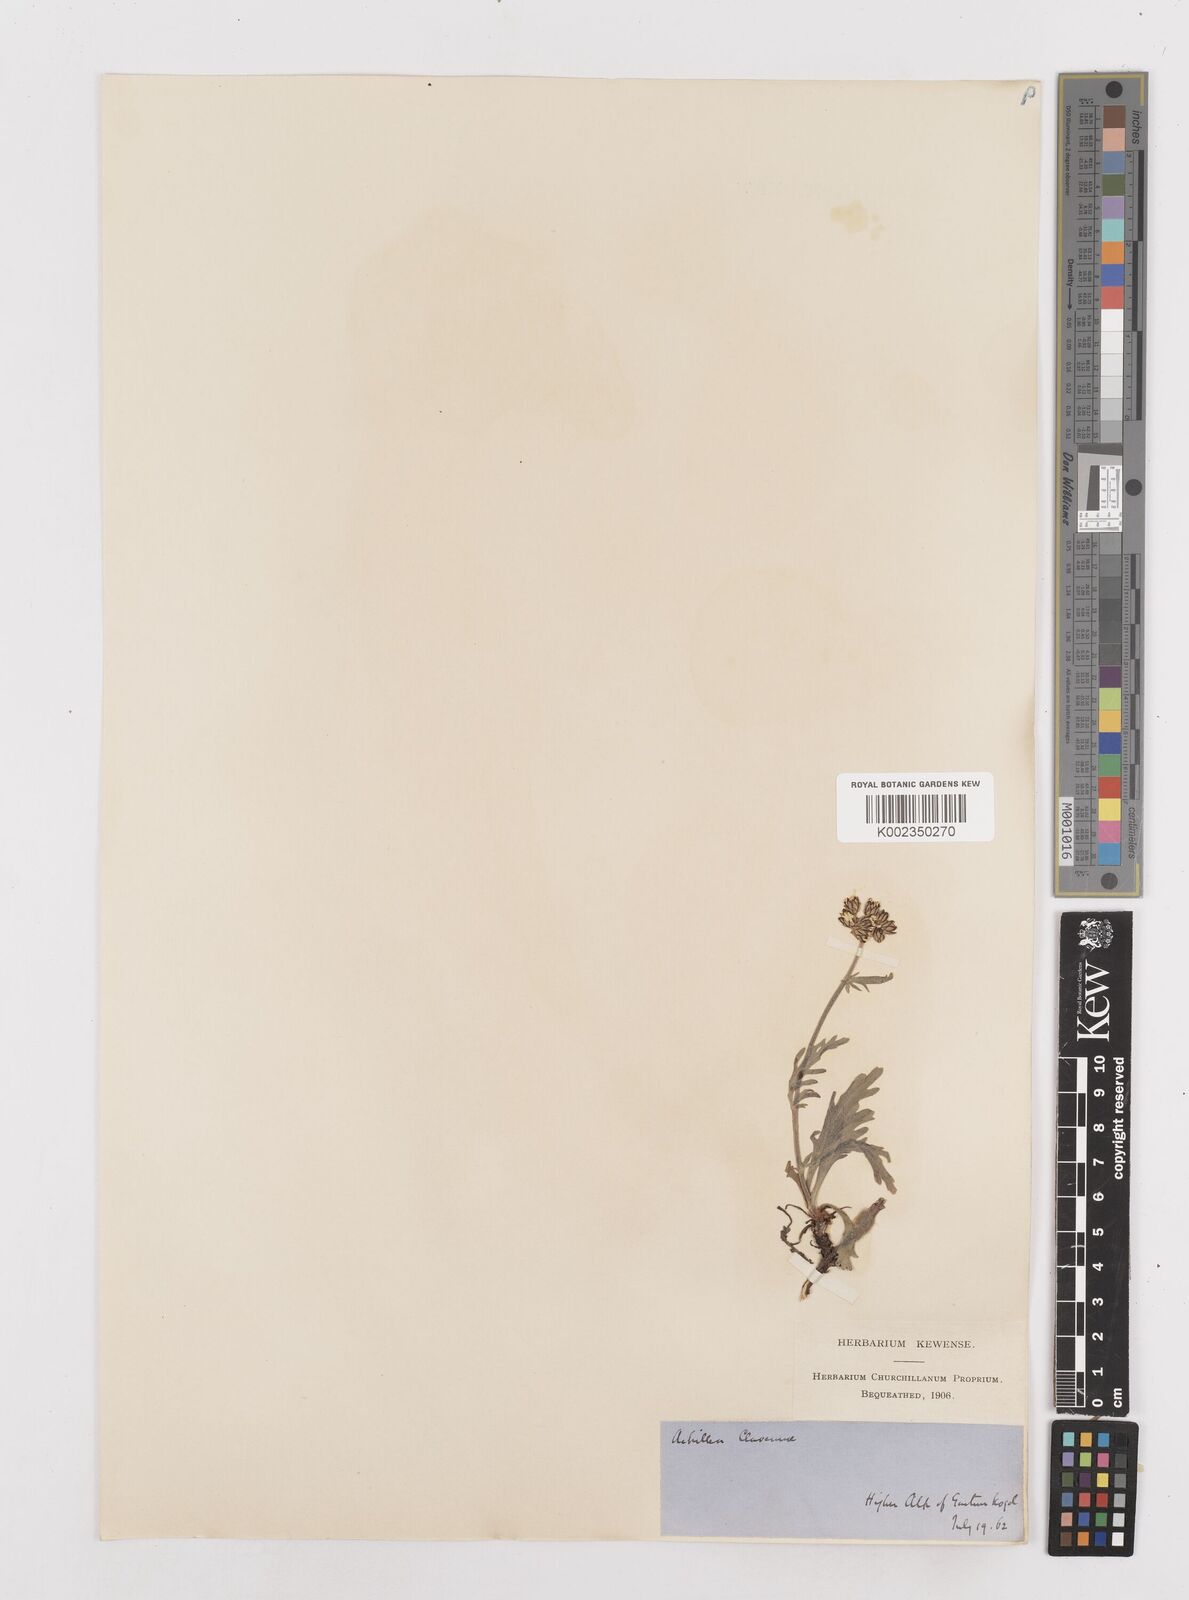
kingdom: Plantae
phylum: Tracheophyta
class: Magnoliopsida
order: Asterales
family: Asteraceae
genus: Achillea
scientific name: Achillea clavennae
